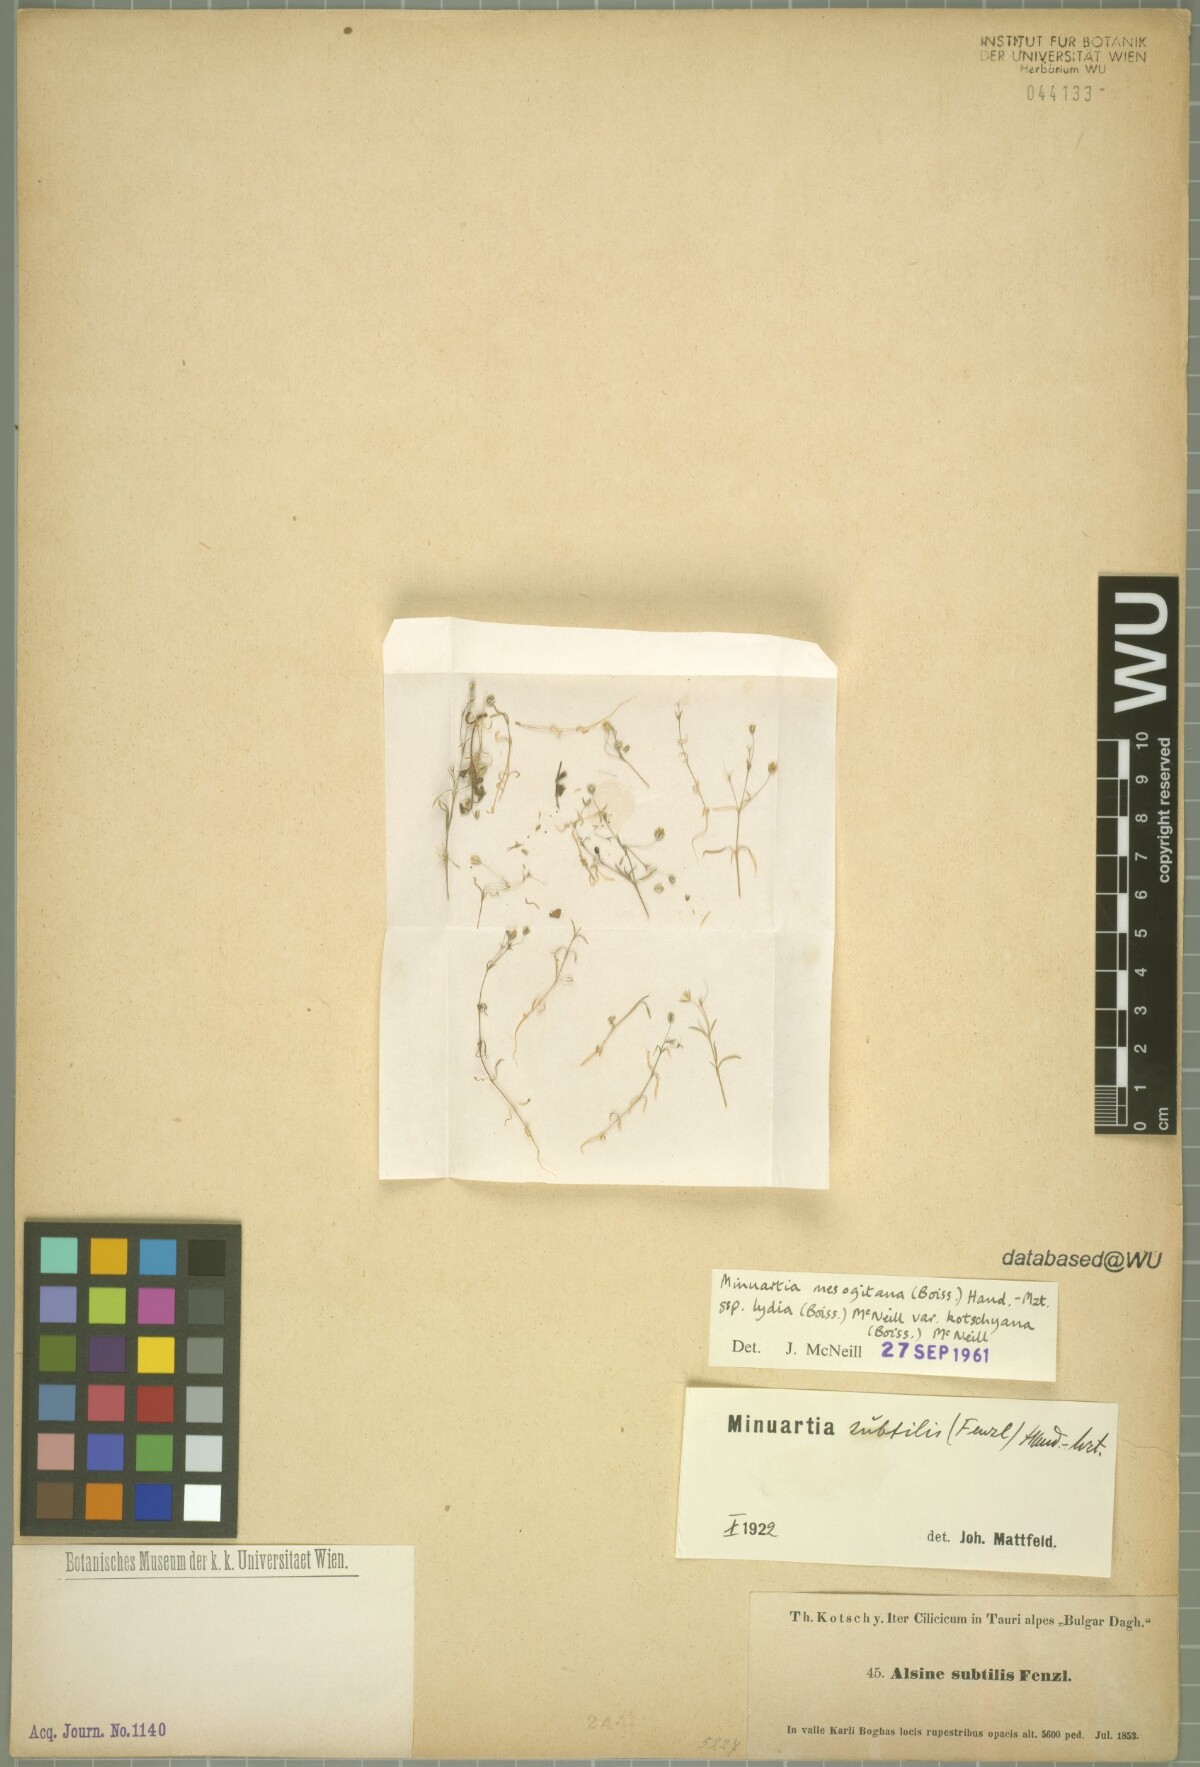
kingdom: Plantae
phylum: Tracheophyta
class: Magnoliopsida
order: Caryophyllales
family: Caryophyllaceae
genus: Sabulina
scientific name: Sabulina mesogitana
